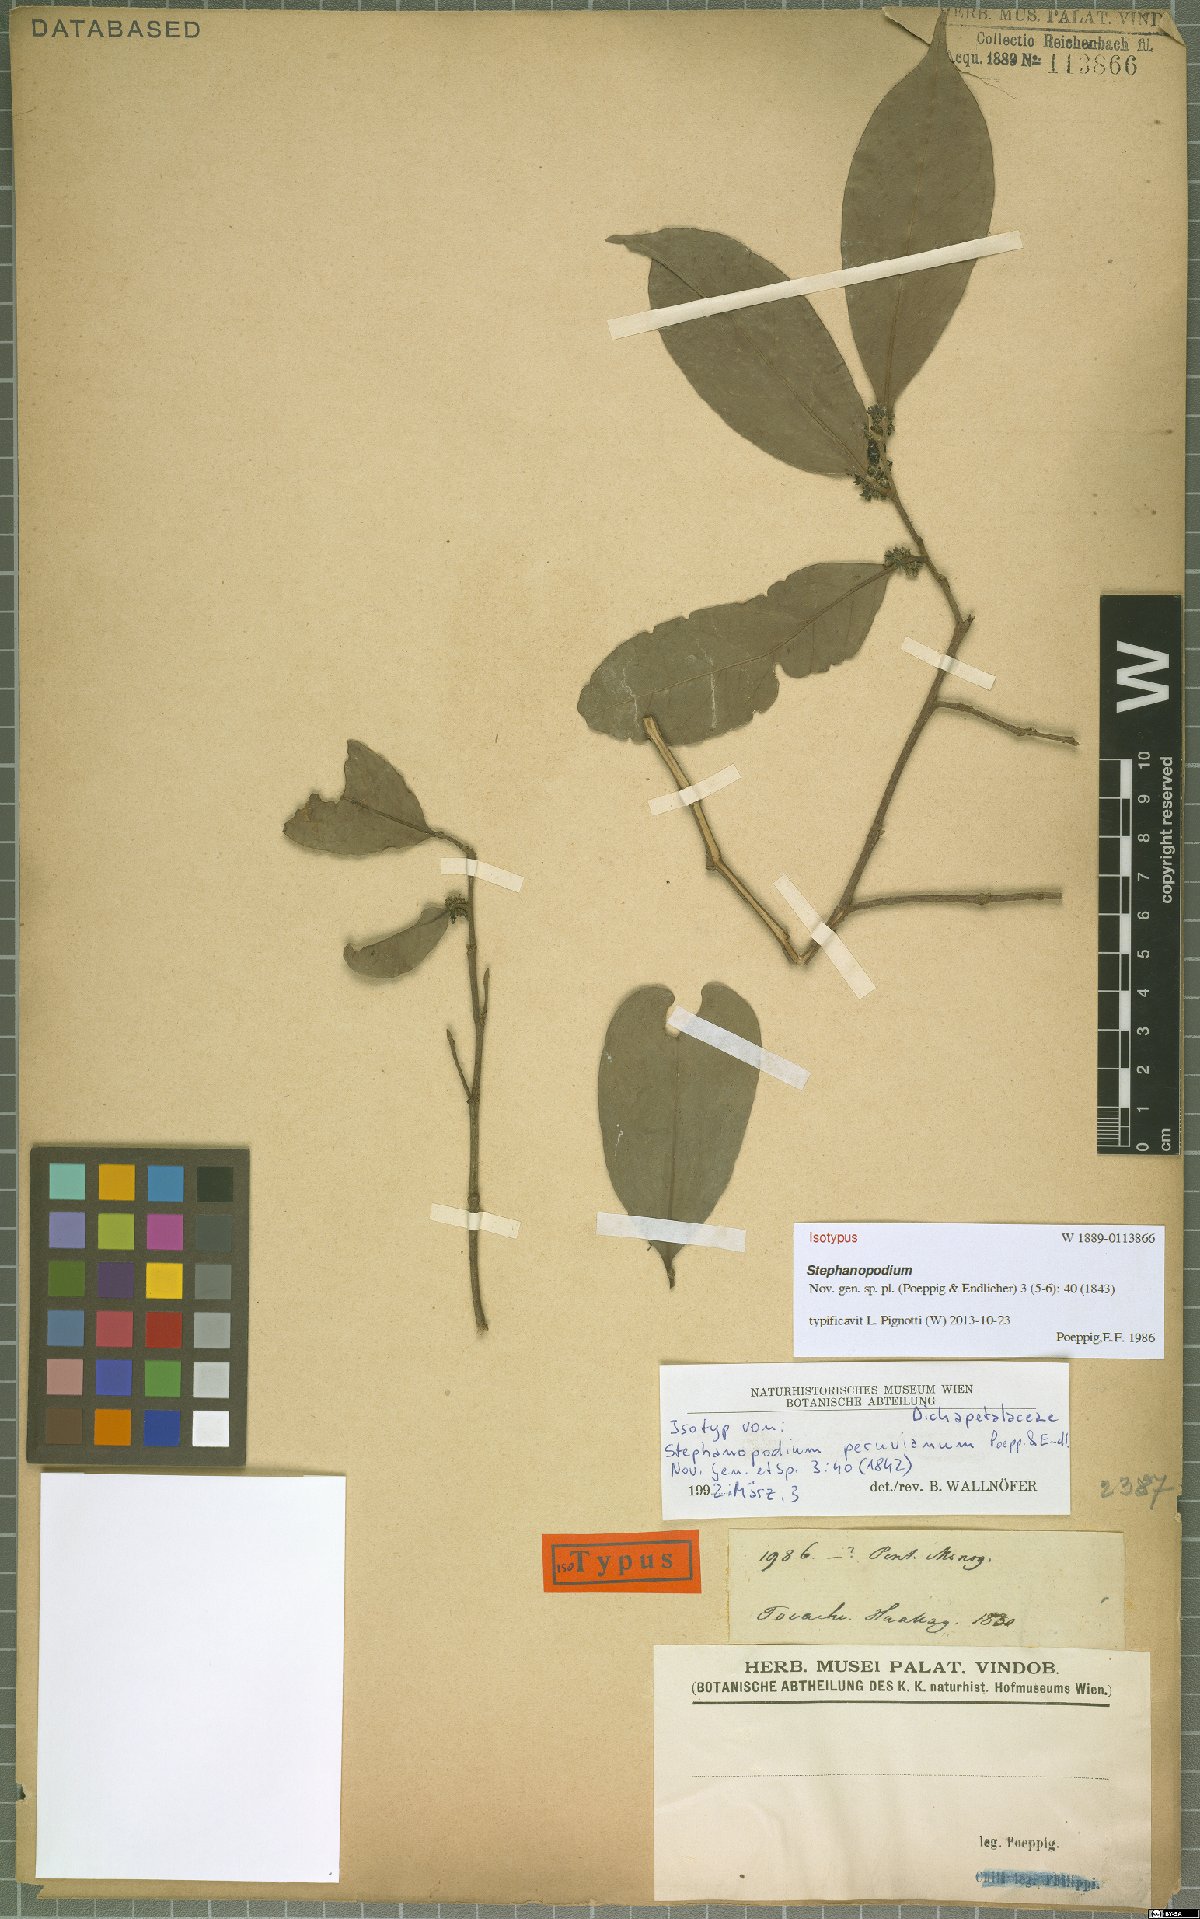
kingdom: Plantae
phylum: Tracheophyta
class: Magnoliopsida
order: Malpighiales
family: Dichapetalaceae
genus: Stephanopodium
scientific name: Stephanopodium peruvianum
